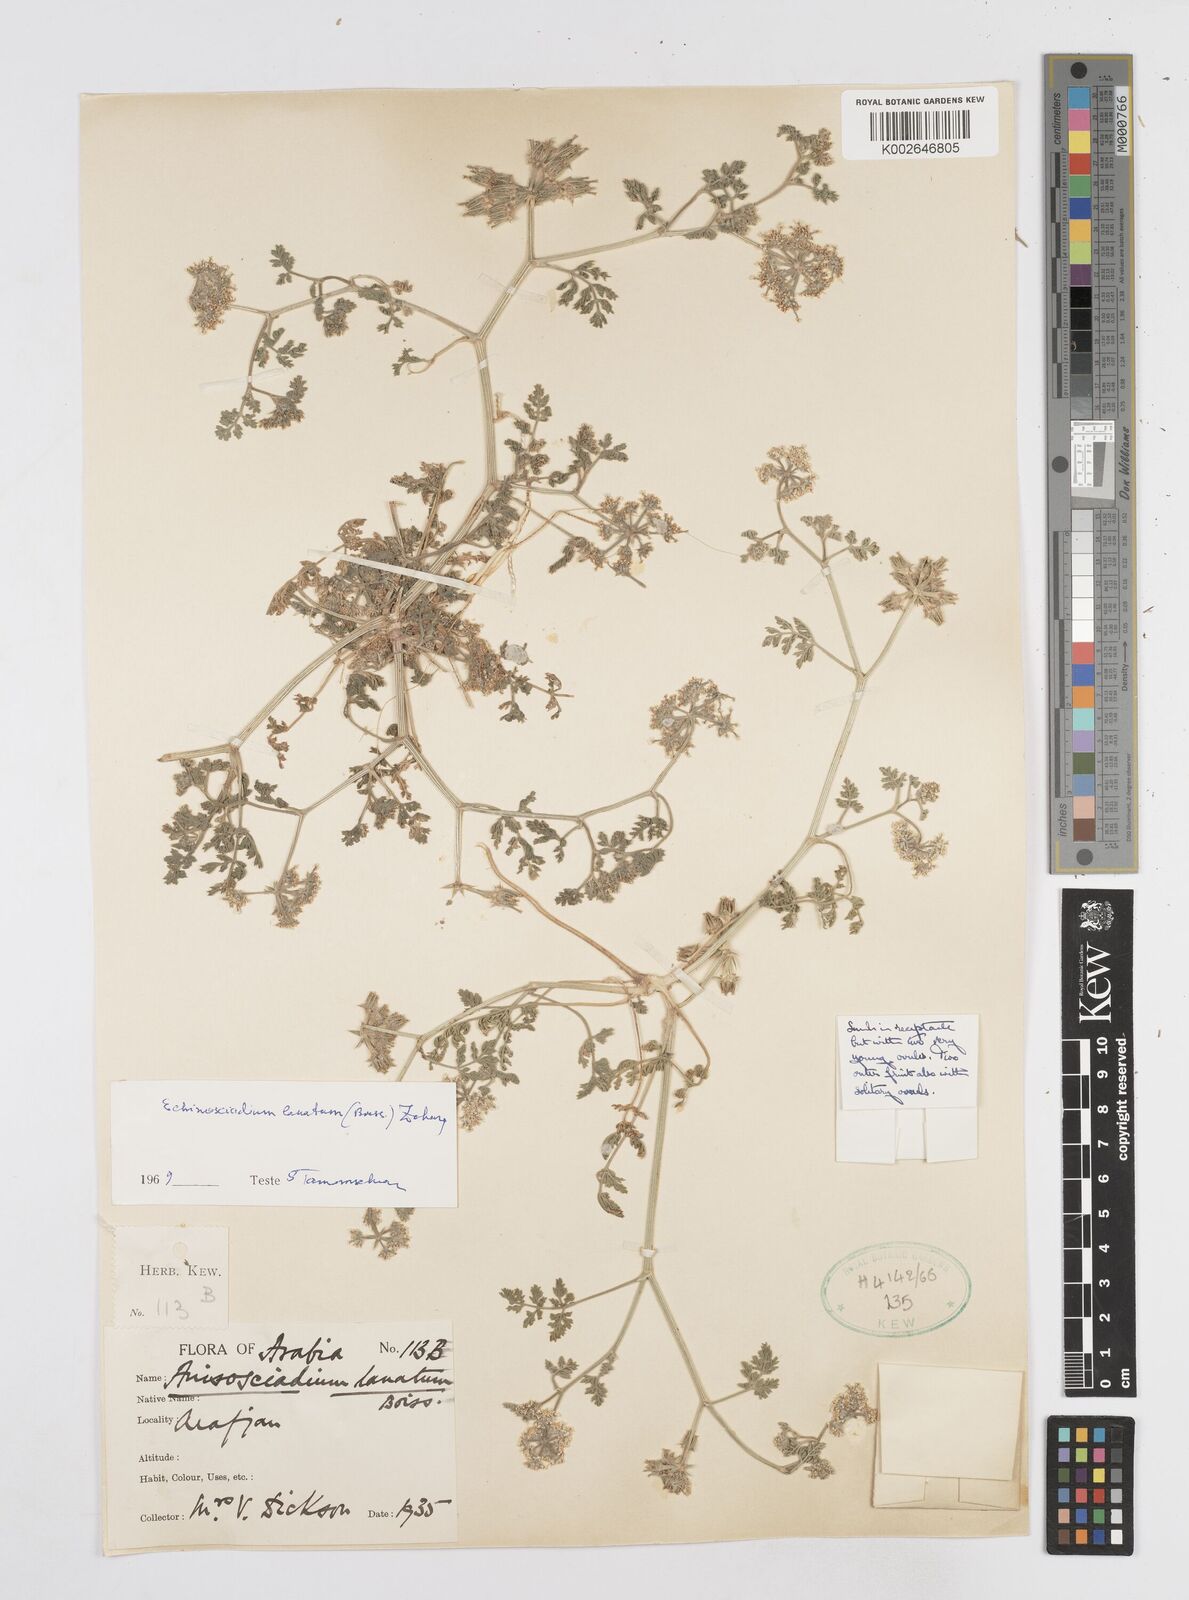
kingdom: Plantae
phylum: Tracheophyta
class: Magnoliopsida
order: Apiales
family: Apiaceae
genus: Anisosciadium
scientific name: Anisosciadium lanatum
